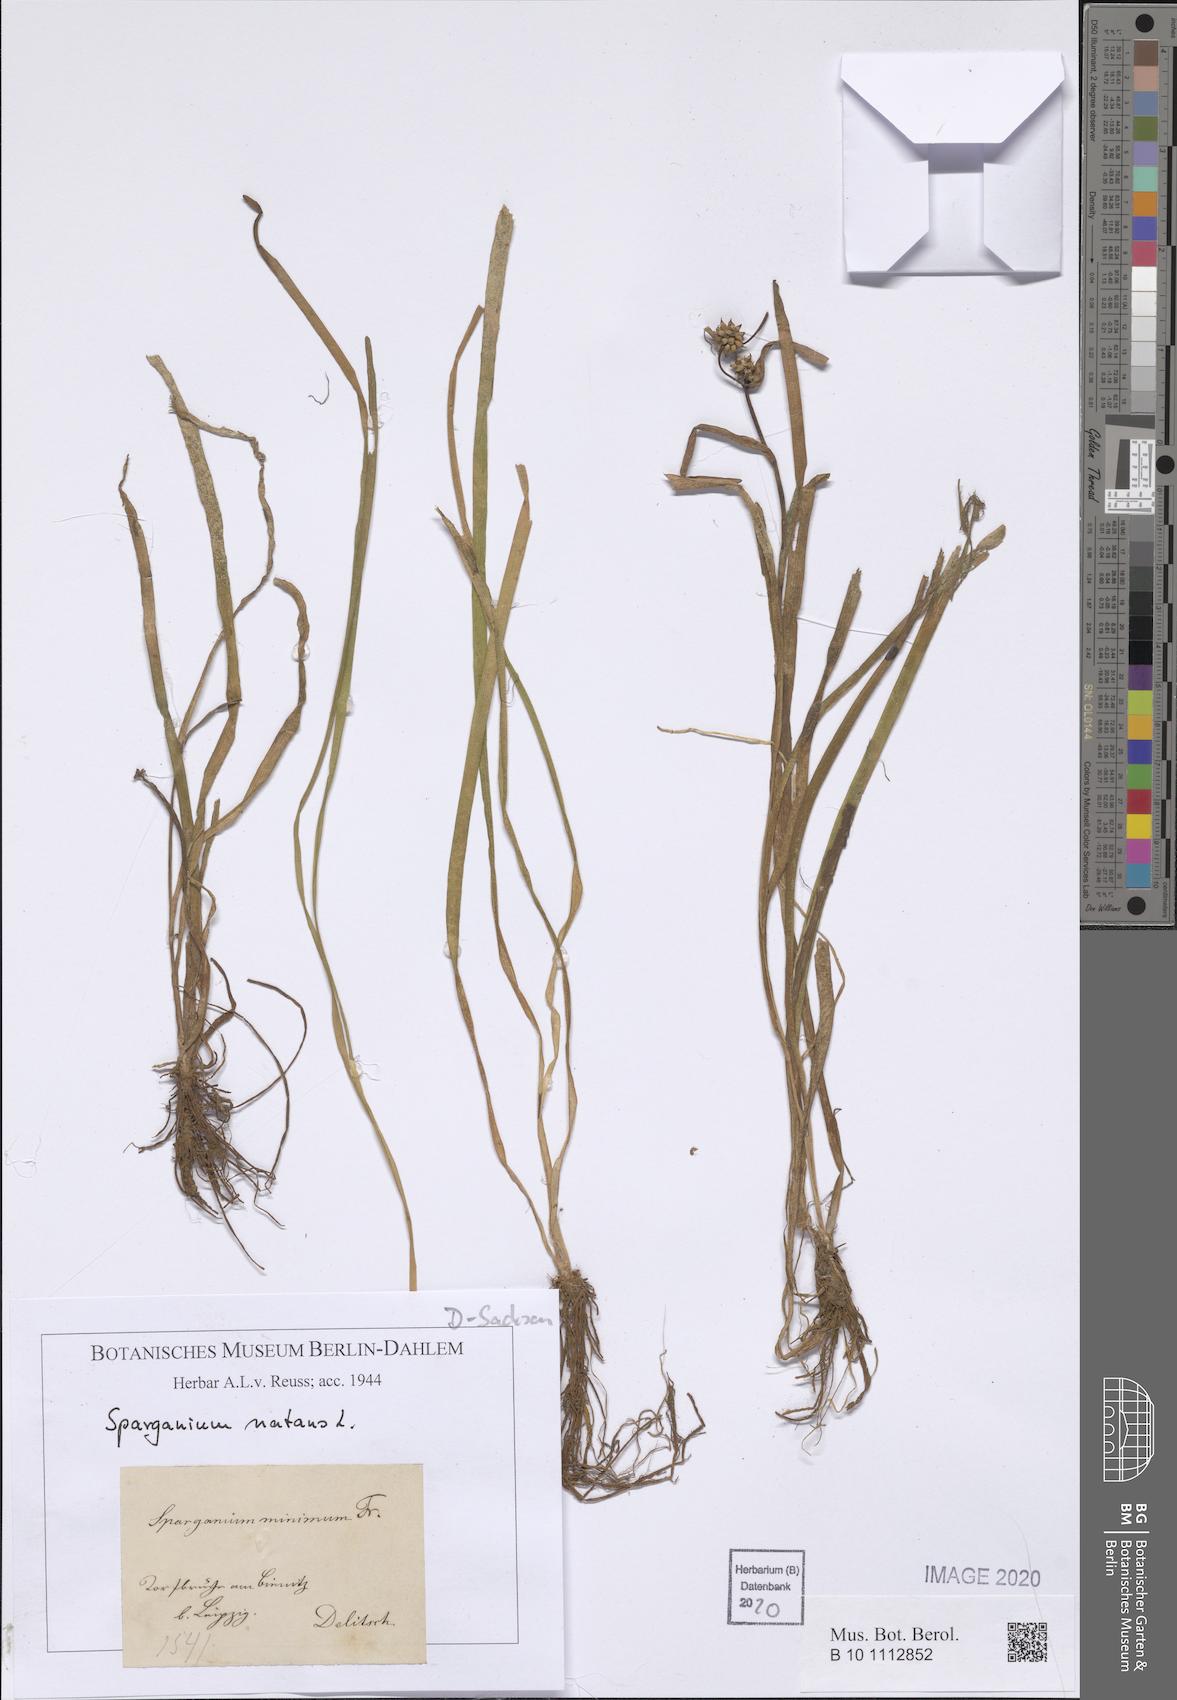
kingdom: Plantae
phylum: Tracheophyta
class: Liliopsida
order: Poales
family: Typhaceae
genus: Sparganium
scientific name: Sparganium natans
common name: Least bur-reed
